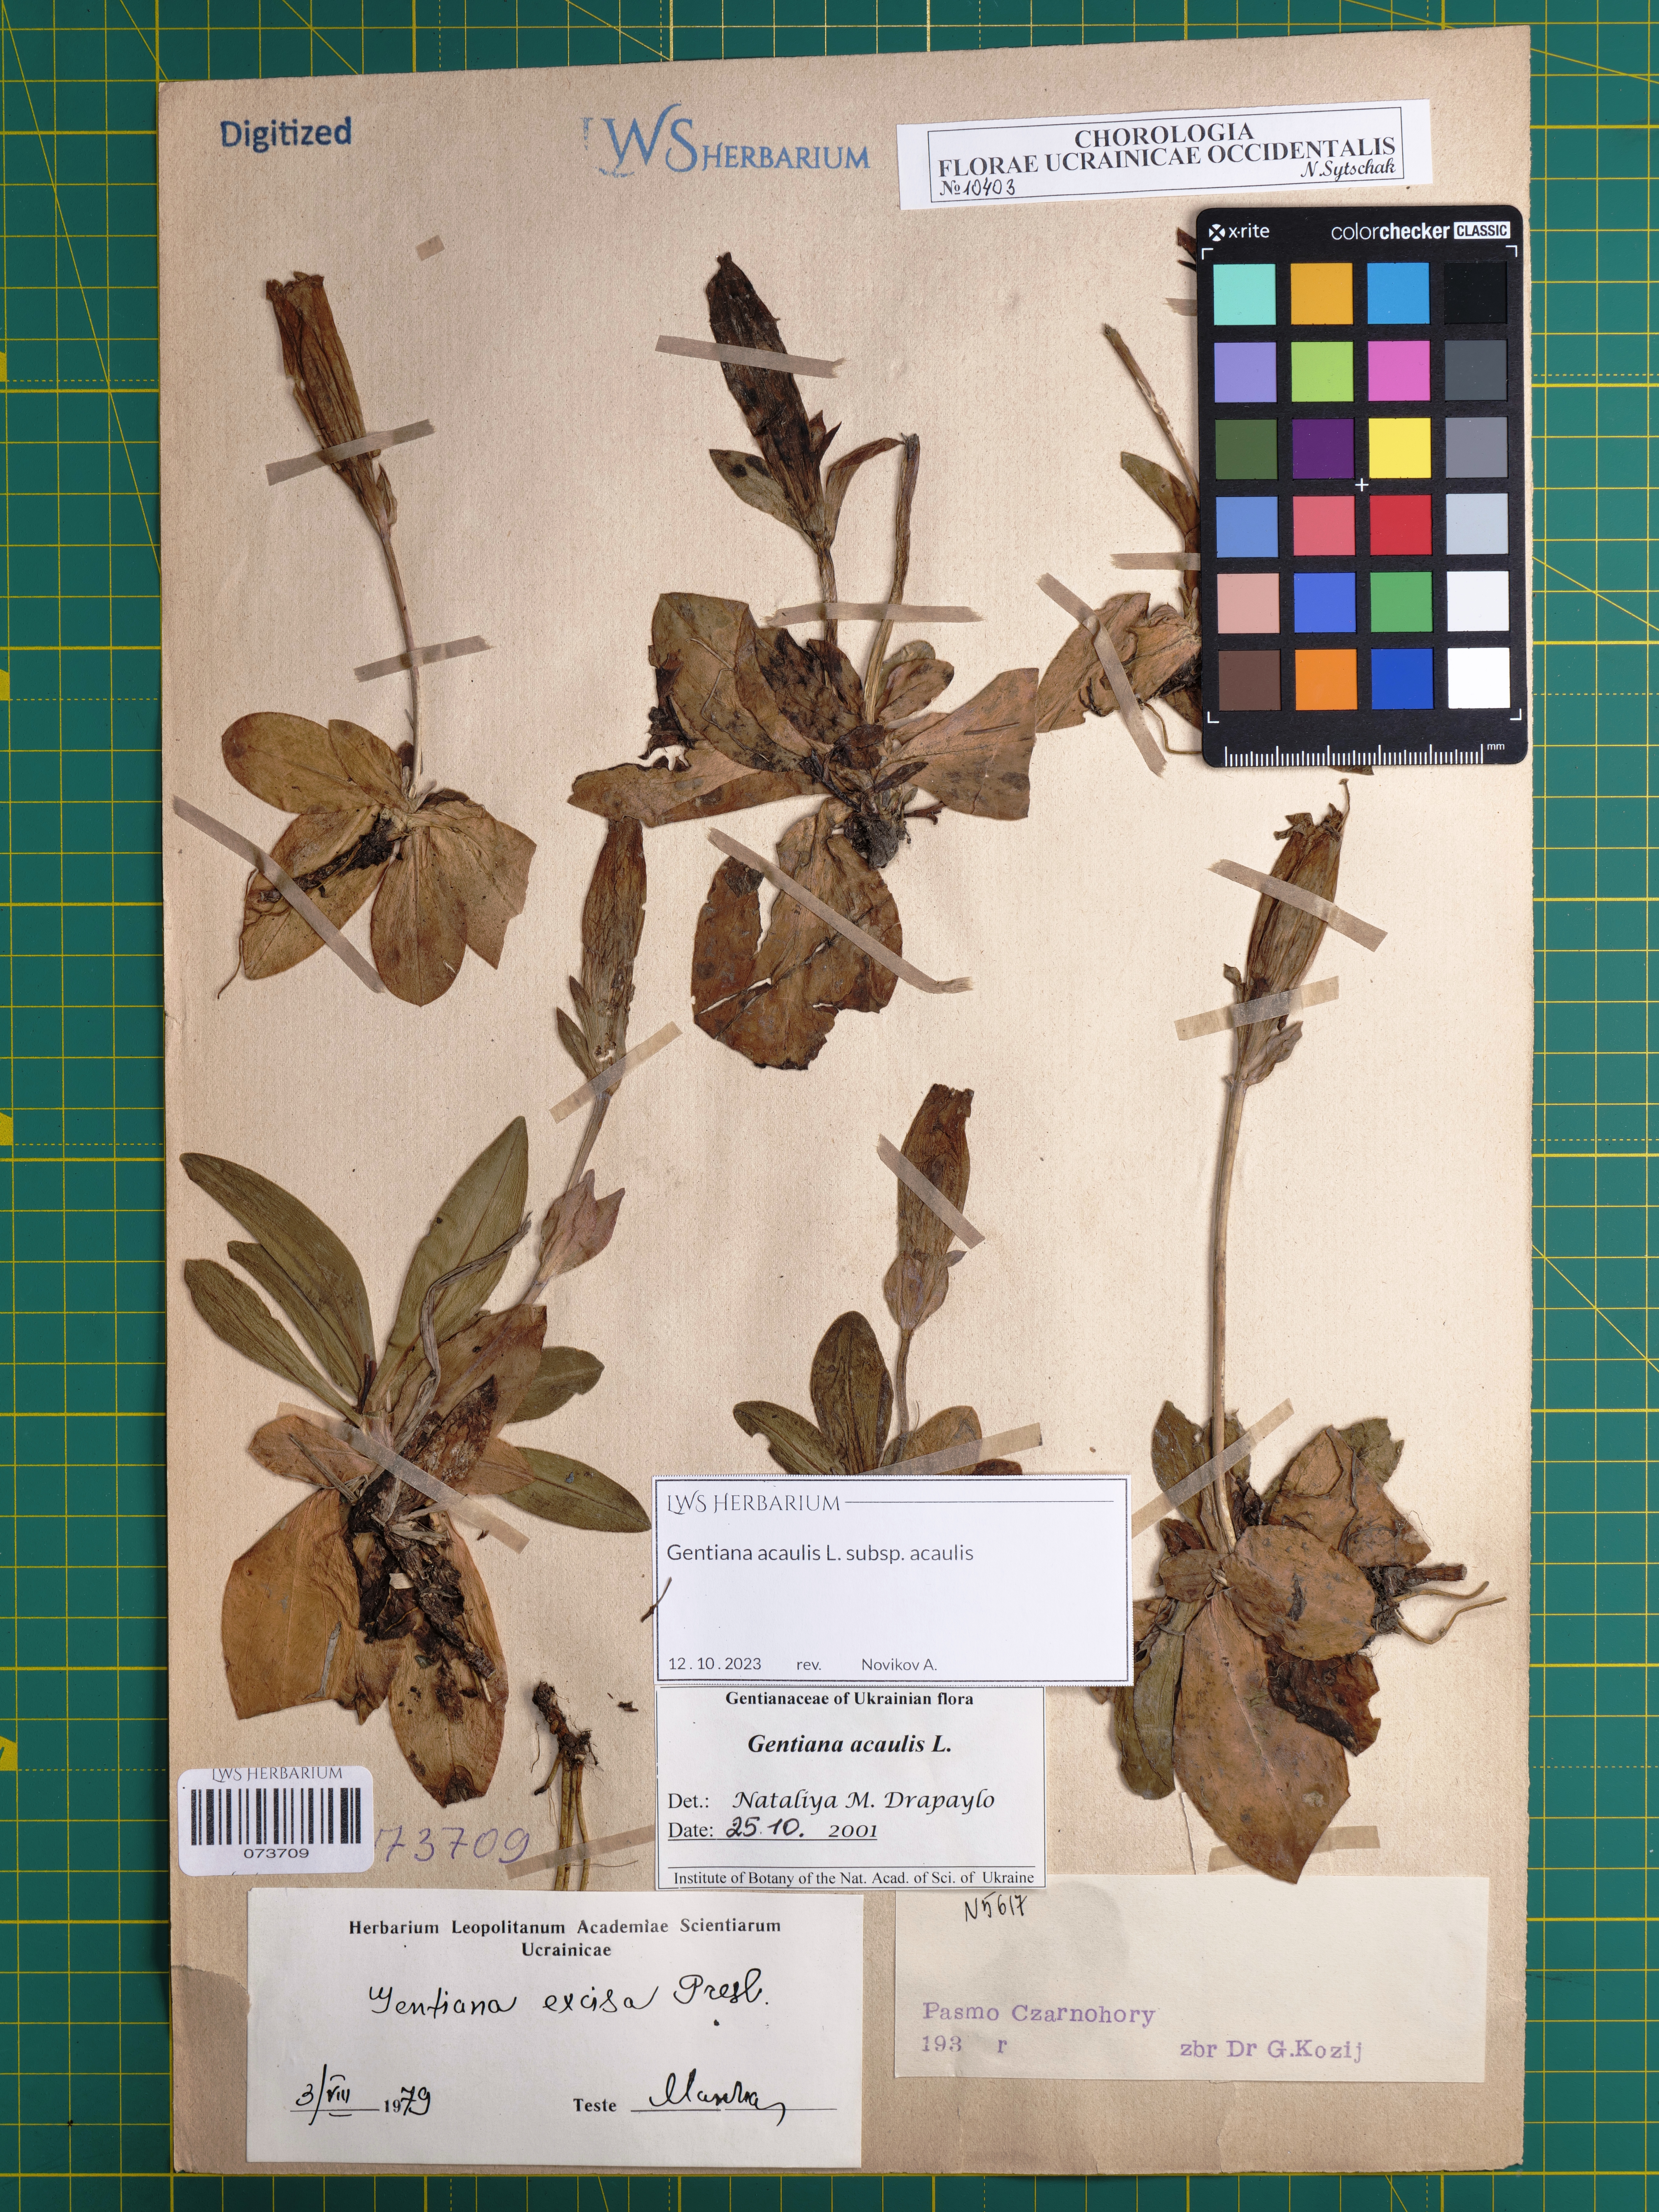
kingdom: Plantae
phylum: Tracheophyta
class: Magnoliopsida
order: Gentianales
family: Gentianaceae
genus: Gentiana
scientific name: Gentiana acaulis
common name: Trumpet gentian
